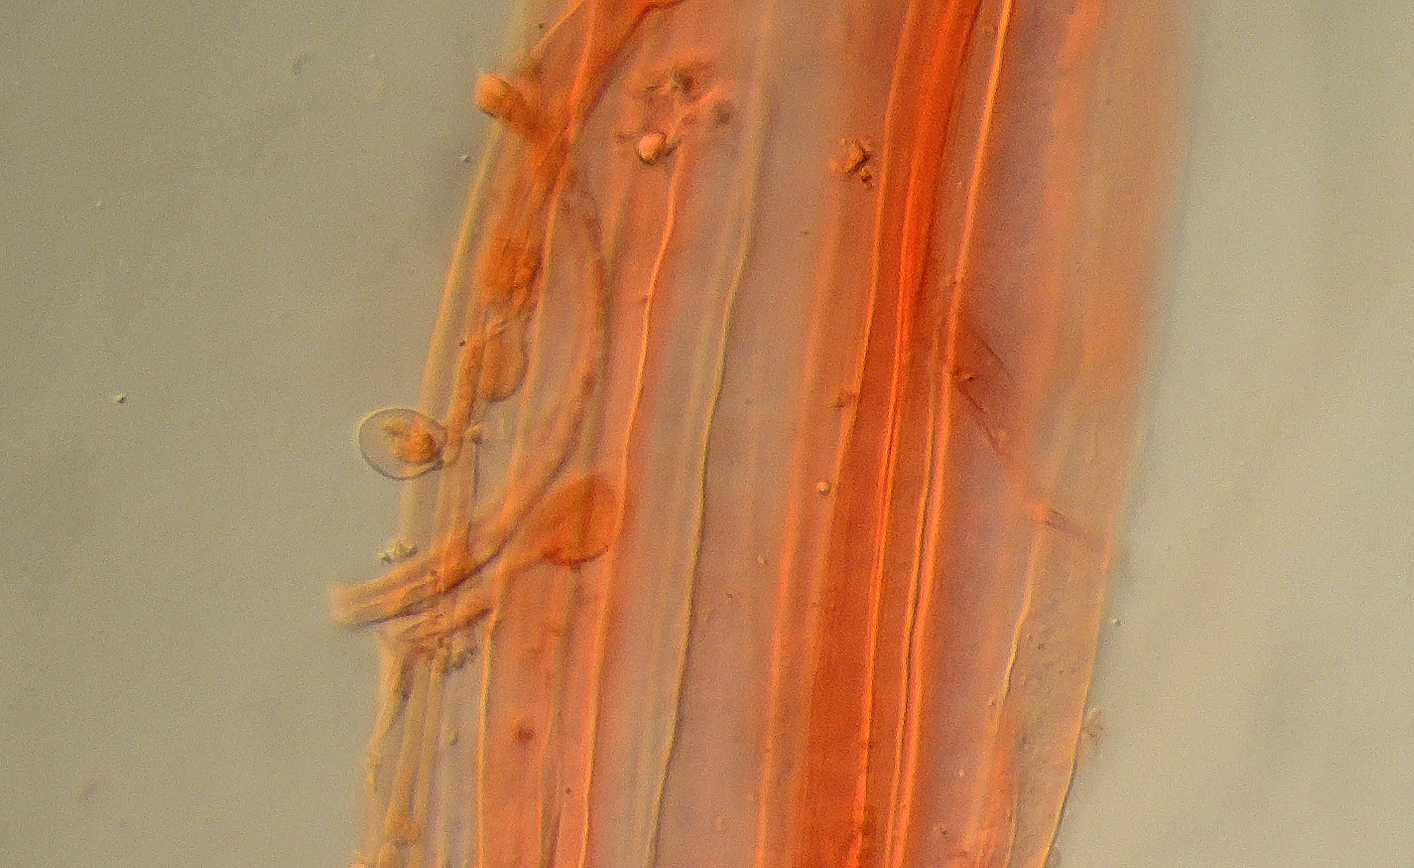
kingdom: Fungi
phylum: Basidiomycota
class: Agaricomycetes
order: Agaricales
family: Mycenaceae
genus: Atheniella
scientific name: Atheniella flavoalba
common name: gulhvid huesvamp
